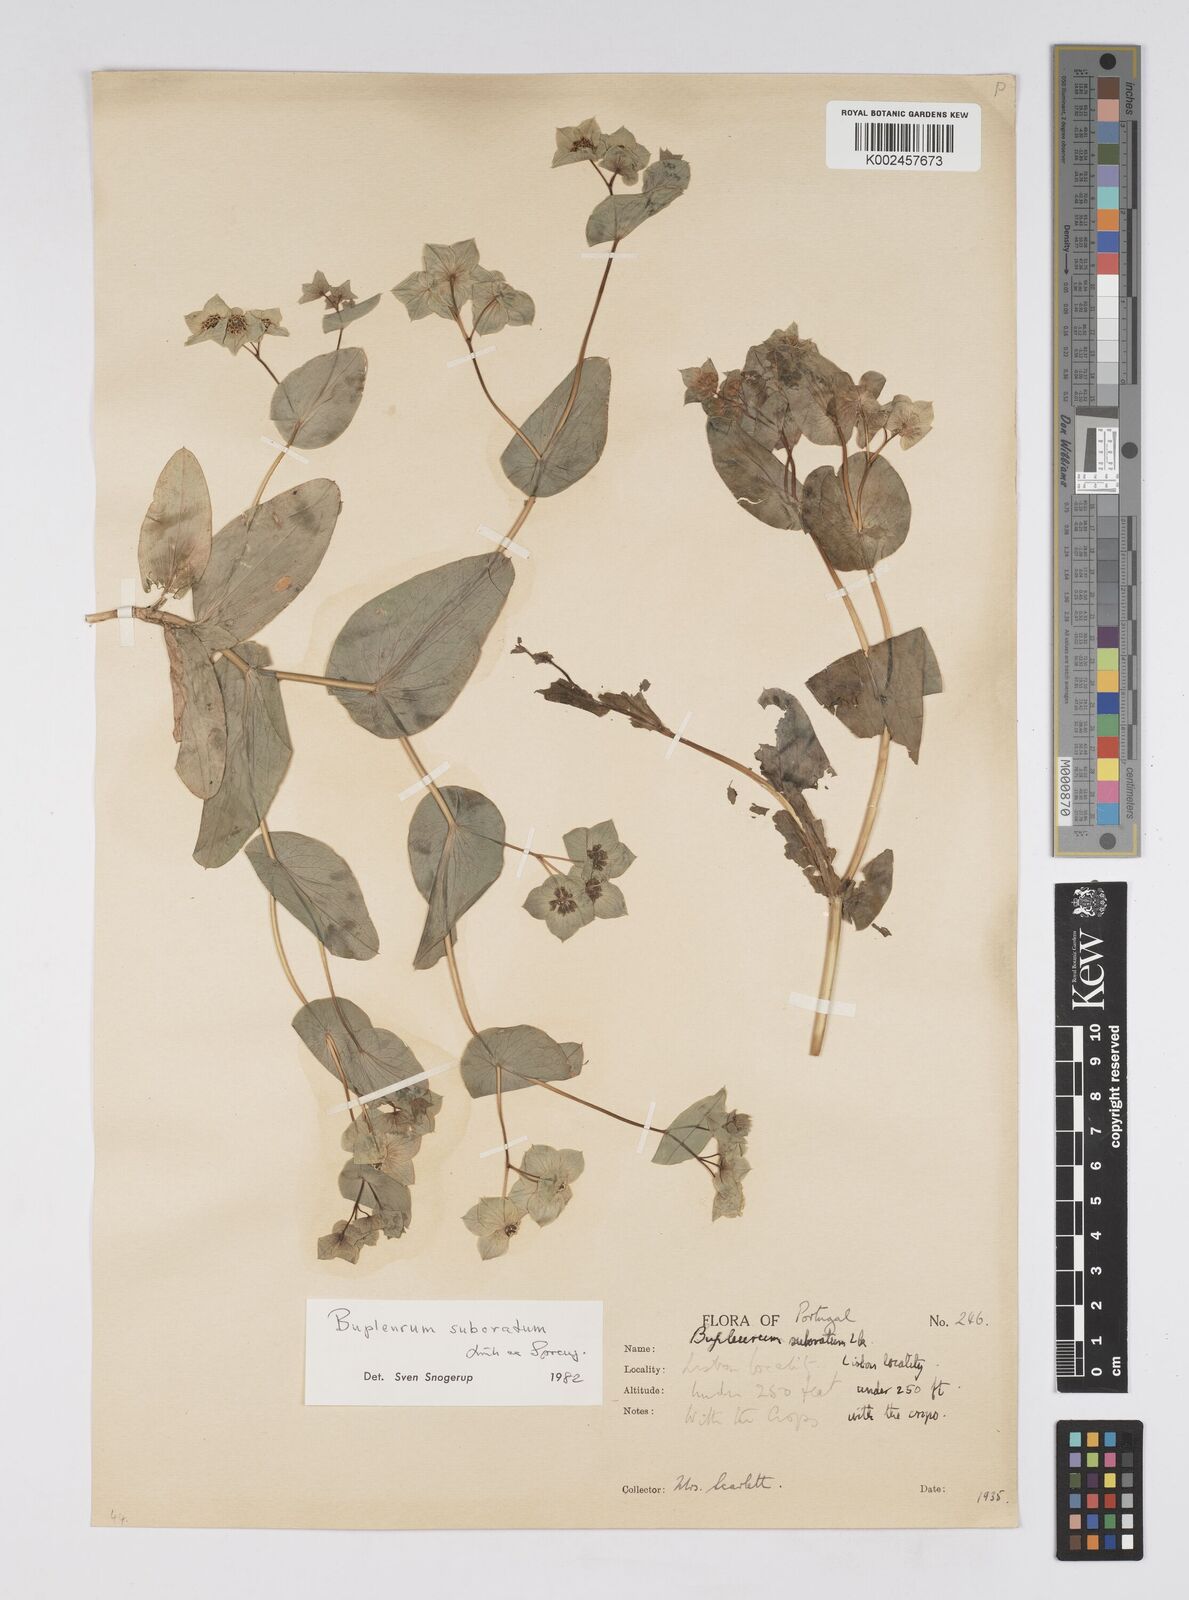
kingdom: Plantae
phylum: Tracheophyta
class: Magnoliopsida
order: Apiales
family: Apiaceae
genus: Bupleurum
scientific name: Bupleurum lancifolium
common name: False thorow-wax
